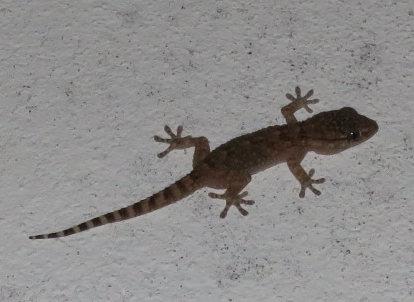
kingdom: Animalia
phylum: Chordata
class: Squamata
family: Phyllodactylidae
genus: Tarentola
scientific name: Tarentola mauritanica
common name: Moorish gecko
